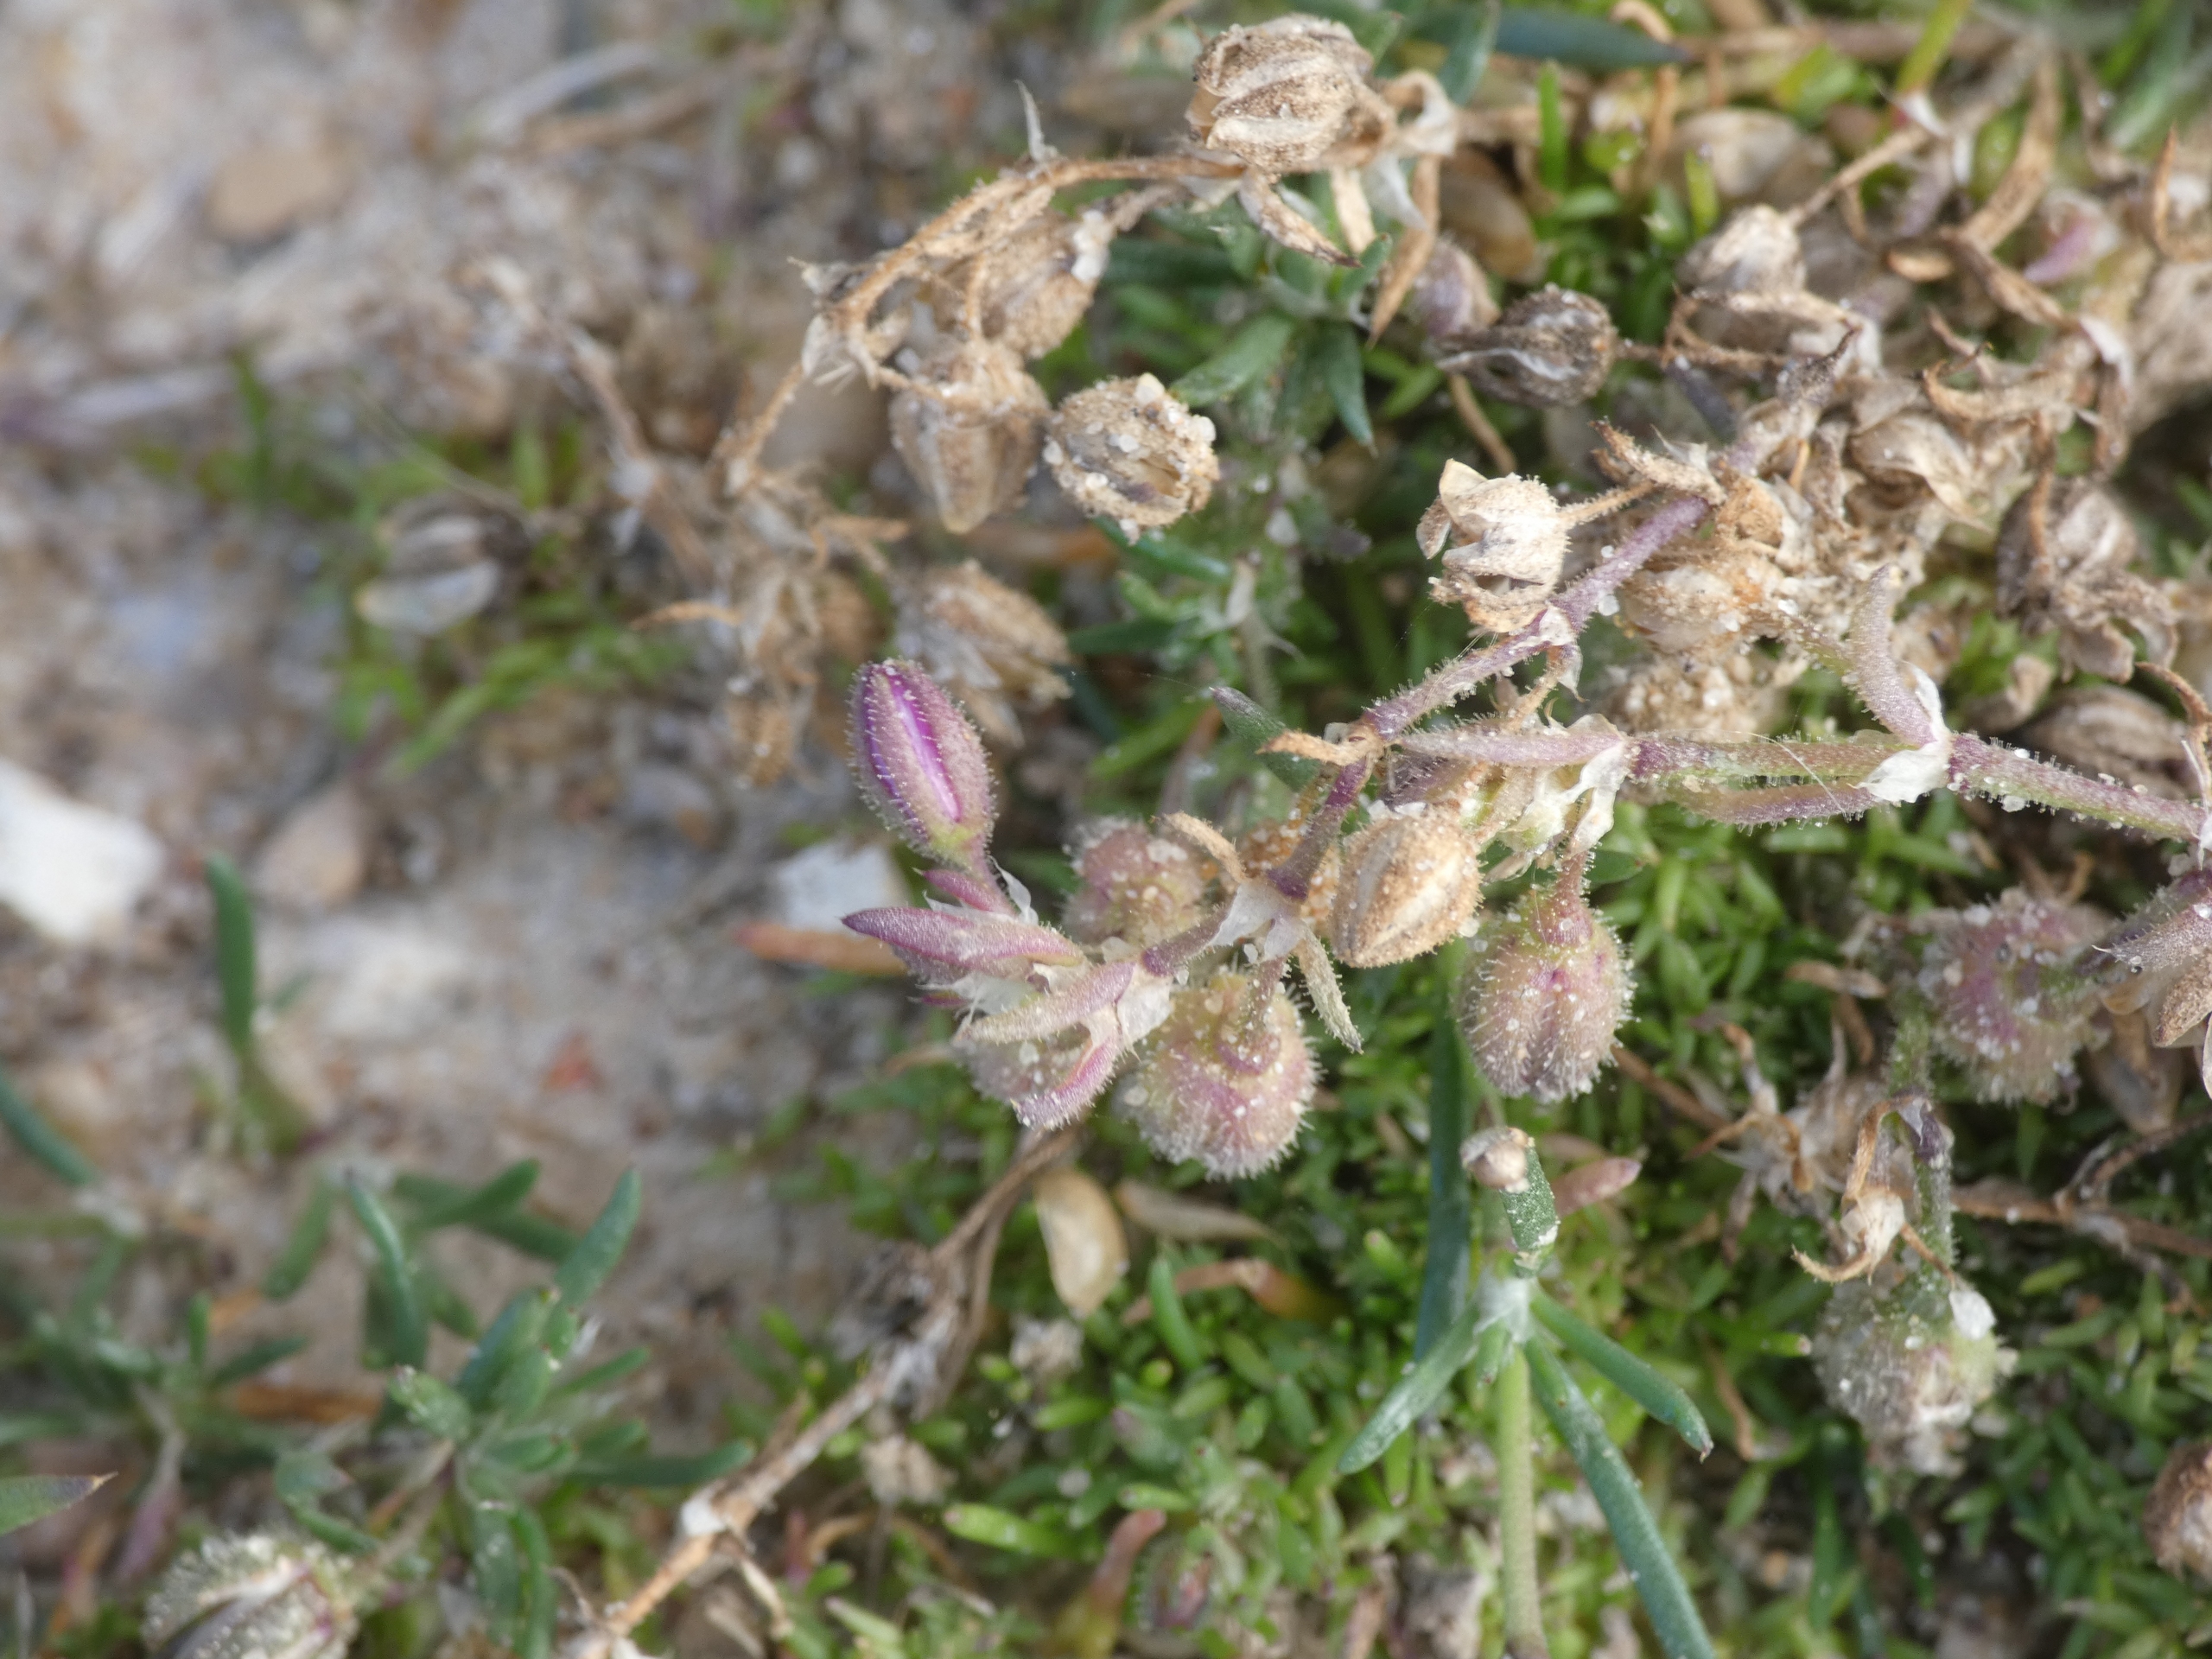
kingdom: Plantae
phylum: Tracheophyta
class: Magnoliopsida
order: Caryophyllales
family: Caryophyllaceae
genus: Spergularia
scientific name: Spergularia rubra
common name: Mark-hindeknæ
